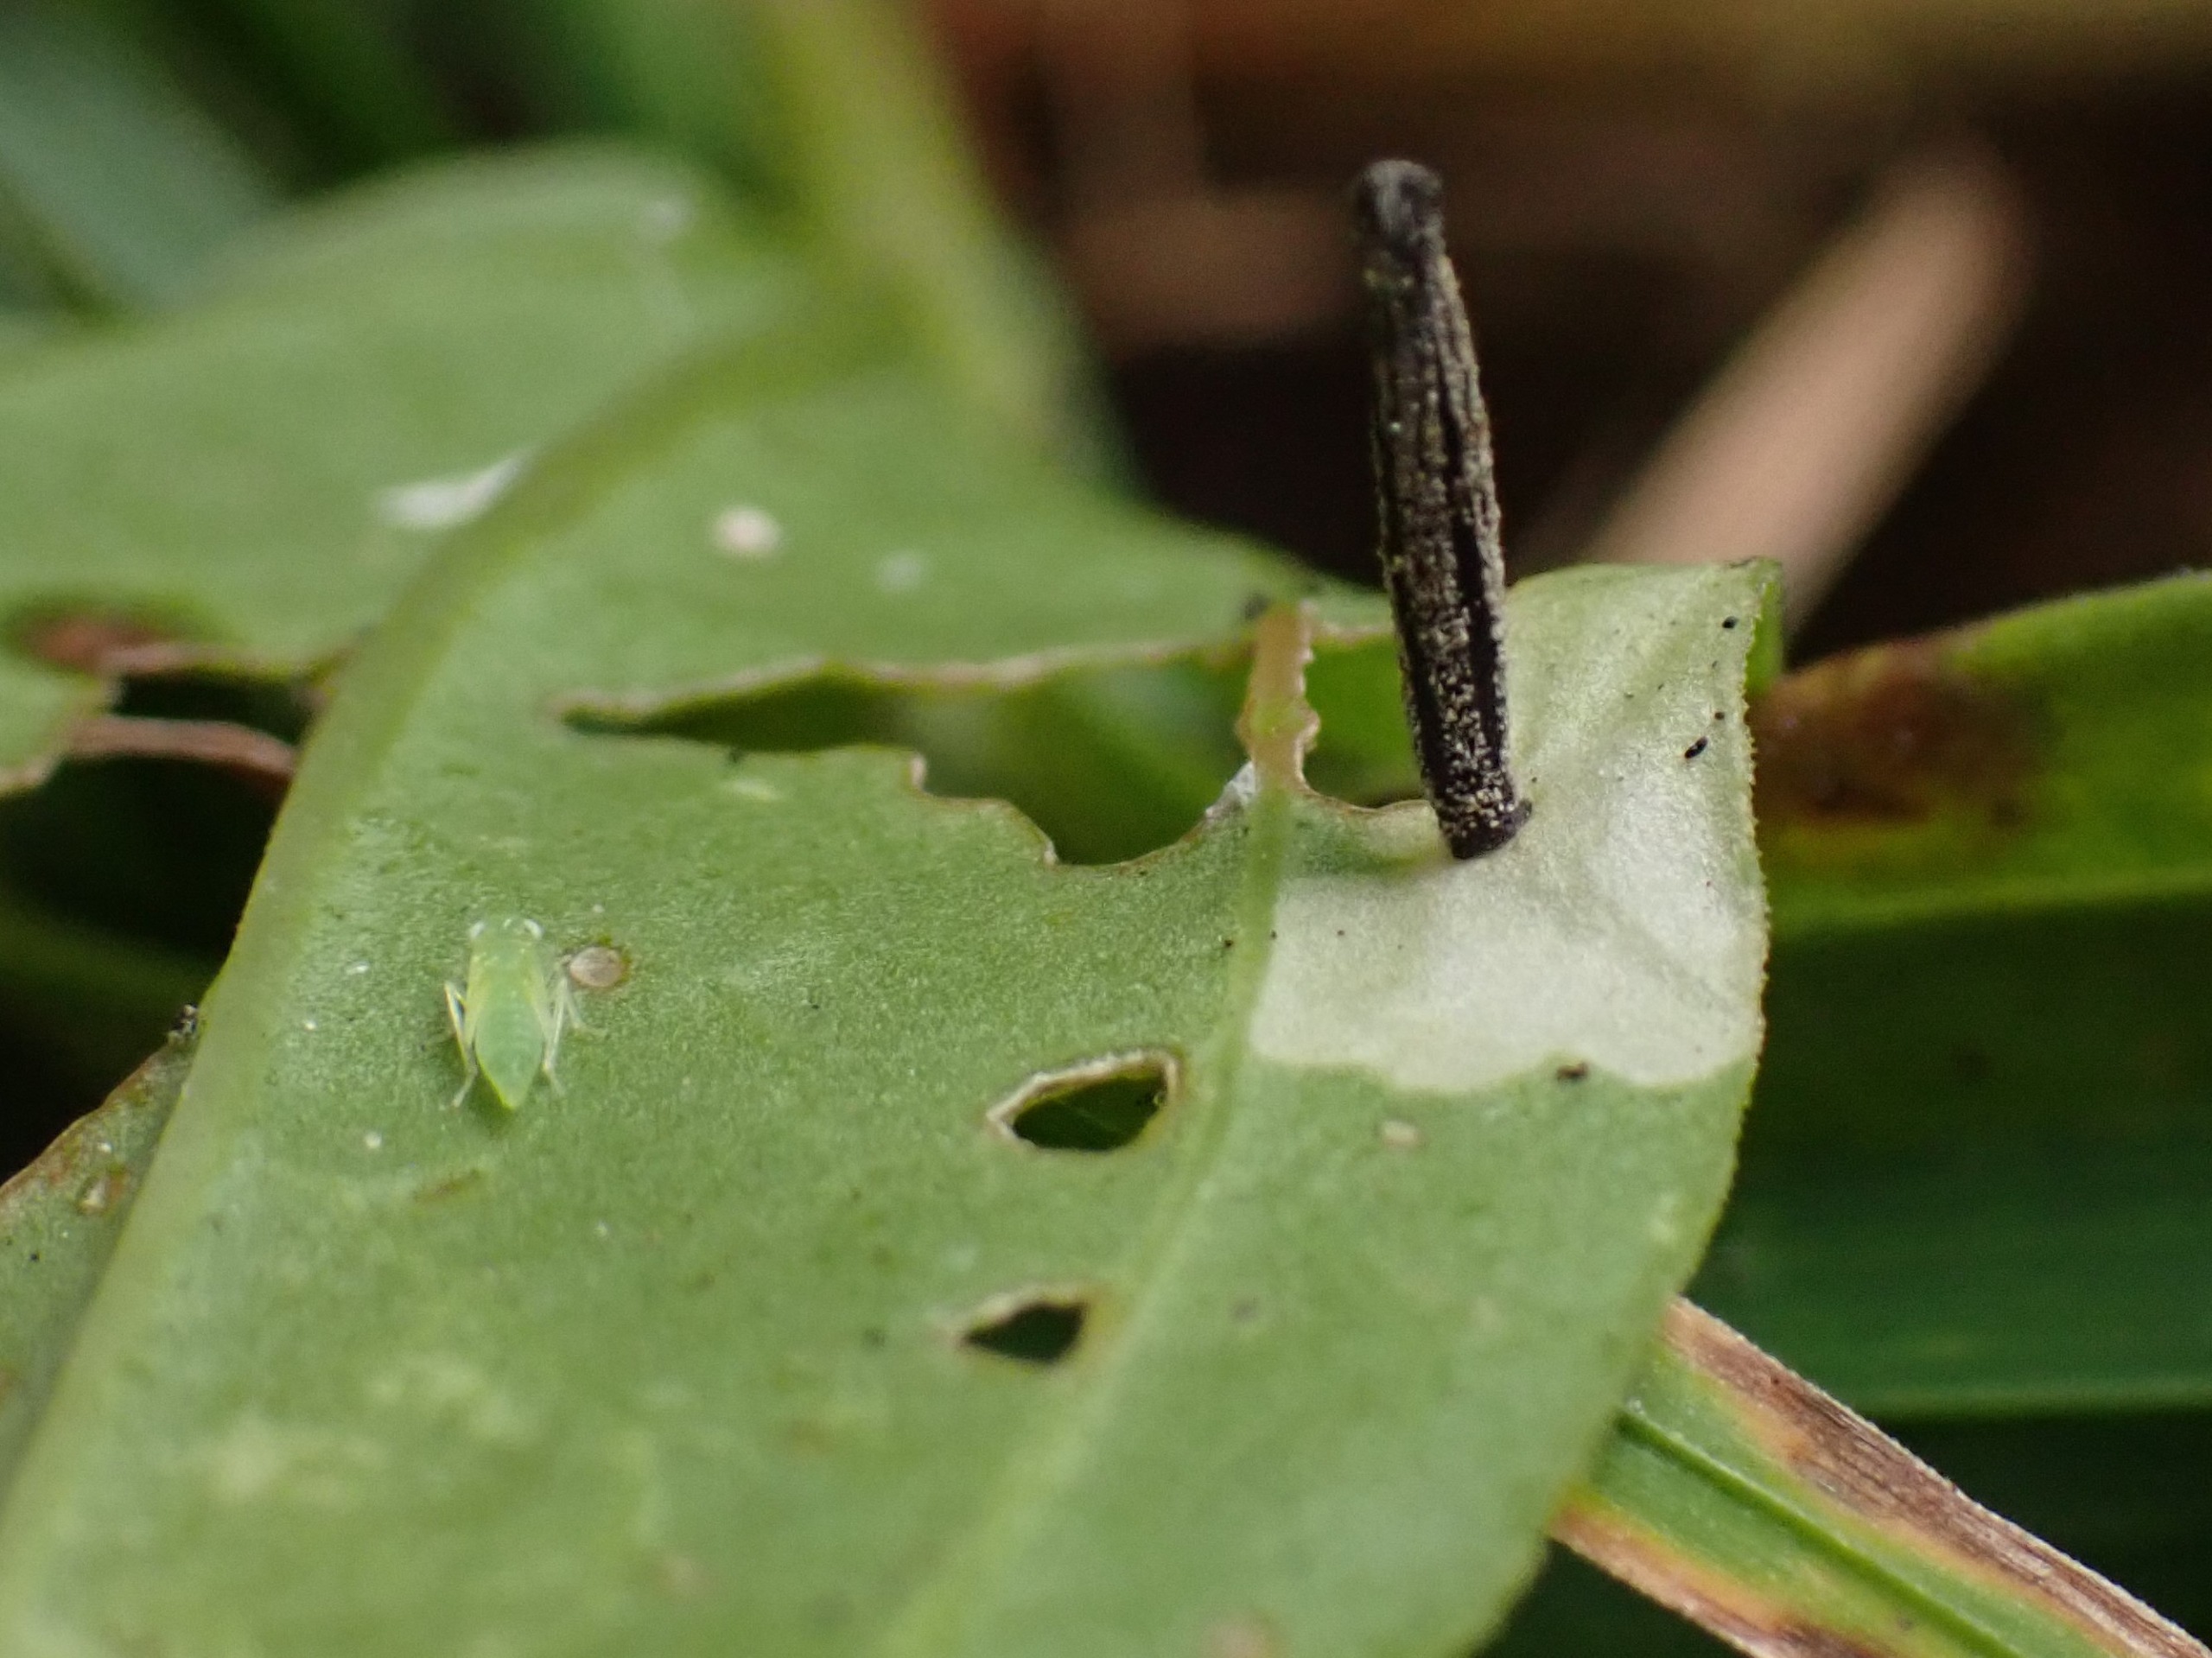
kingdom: Animalia
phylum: Arthropoda
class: Insecta
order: Lepidoptera
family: Coleophoridae
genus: Coleophora
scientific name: Coleophora saponariella
